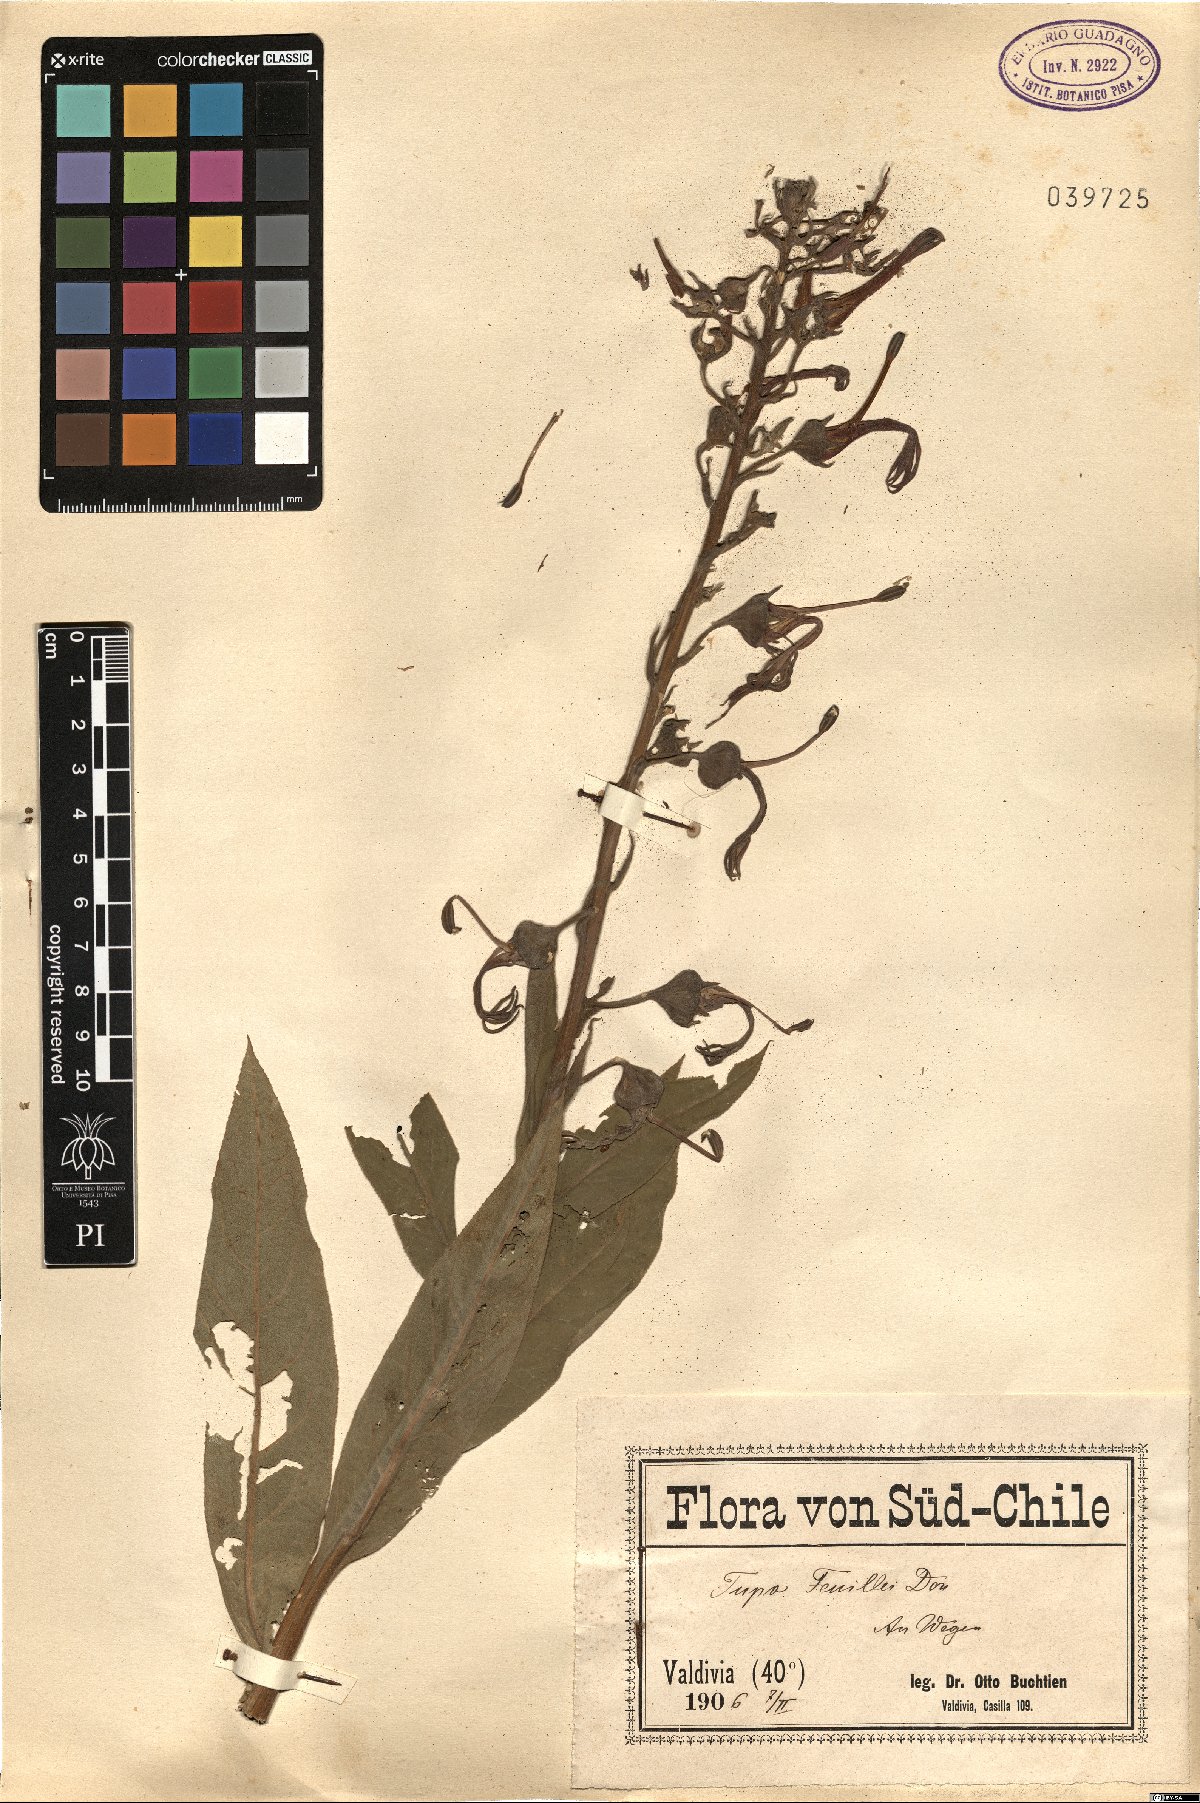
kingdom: Plantae
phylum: Tracheophyta
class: Magnoliopsida
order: Asterales
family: Campanulaceae
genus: Lobelia
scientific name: Lobelia tupa
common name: Devil's-tobacco
